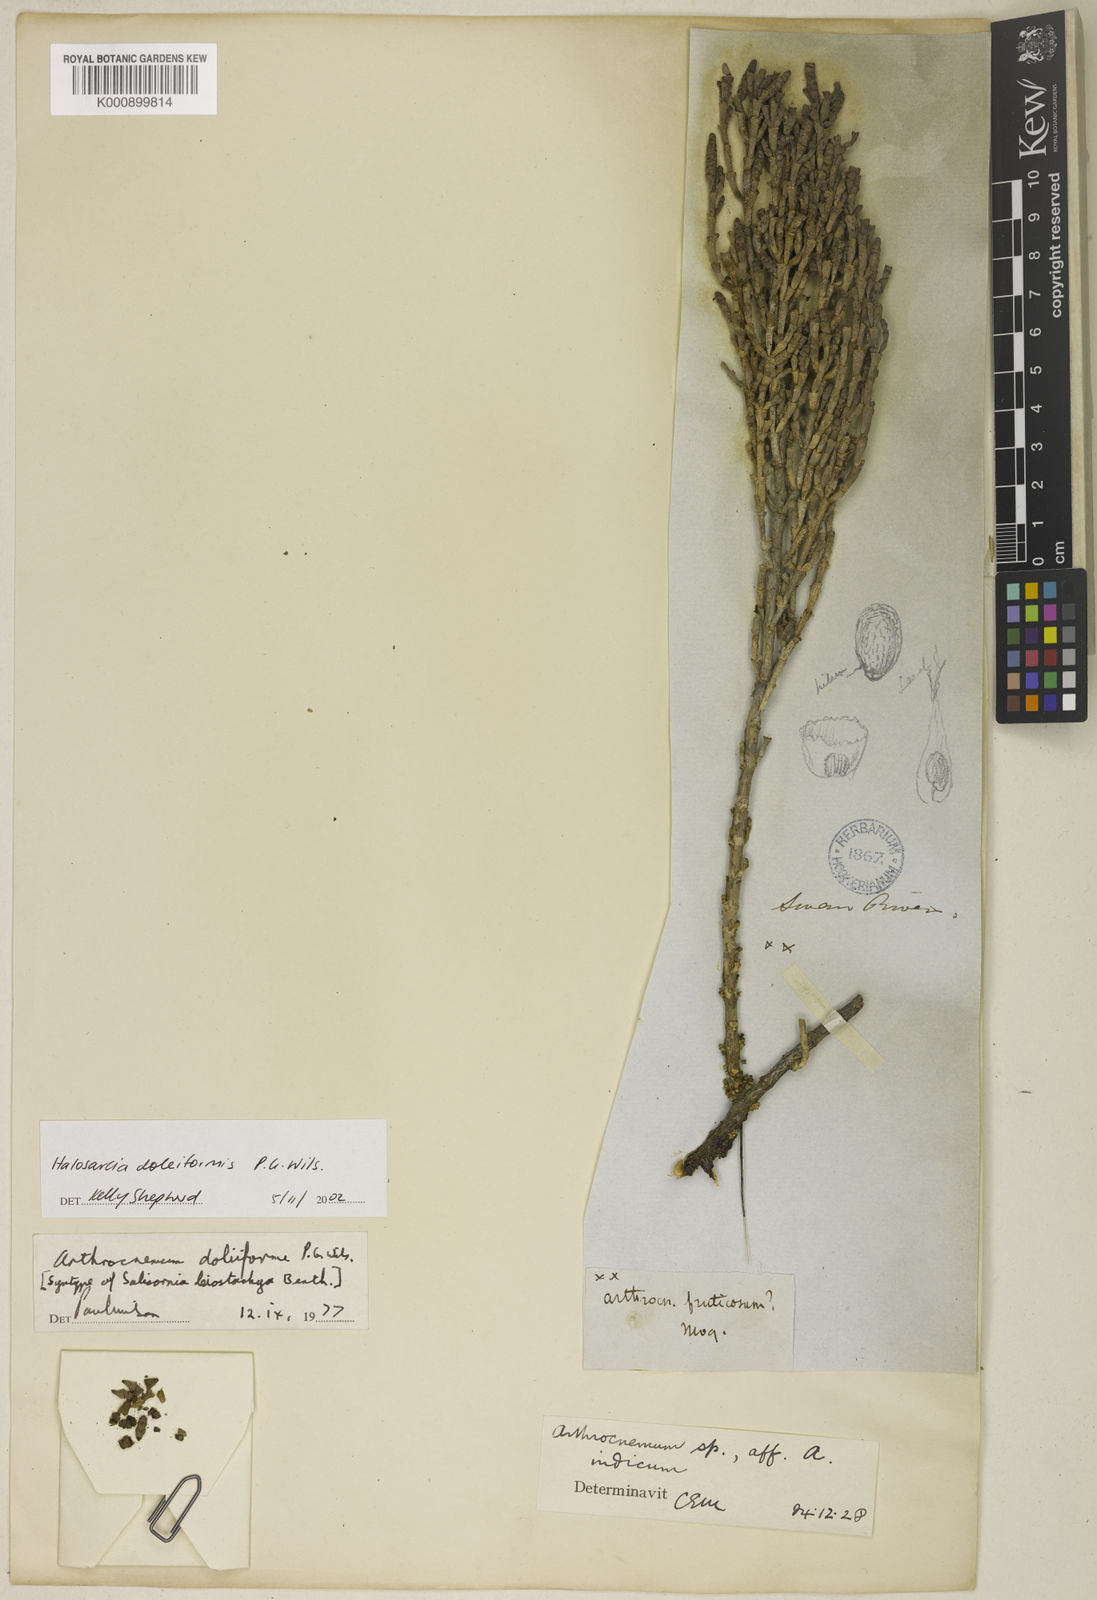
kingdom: Plantae
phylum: Tracheophyta
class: Magnoliopsida
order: Caryophyllales
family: Amaranthaceae
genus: Tecticornia
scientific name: Tecticornia doliiformis
